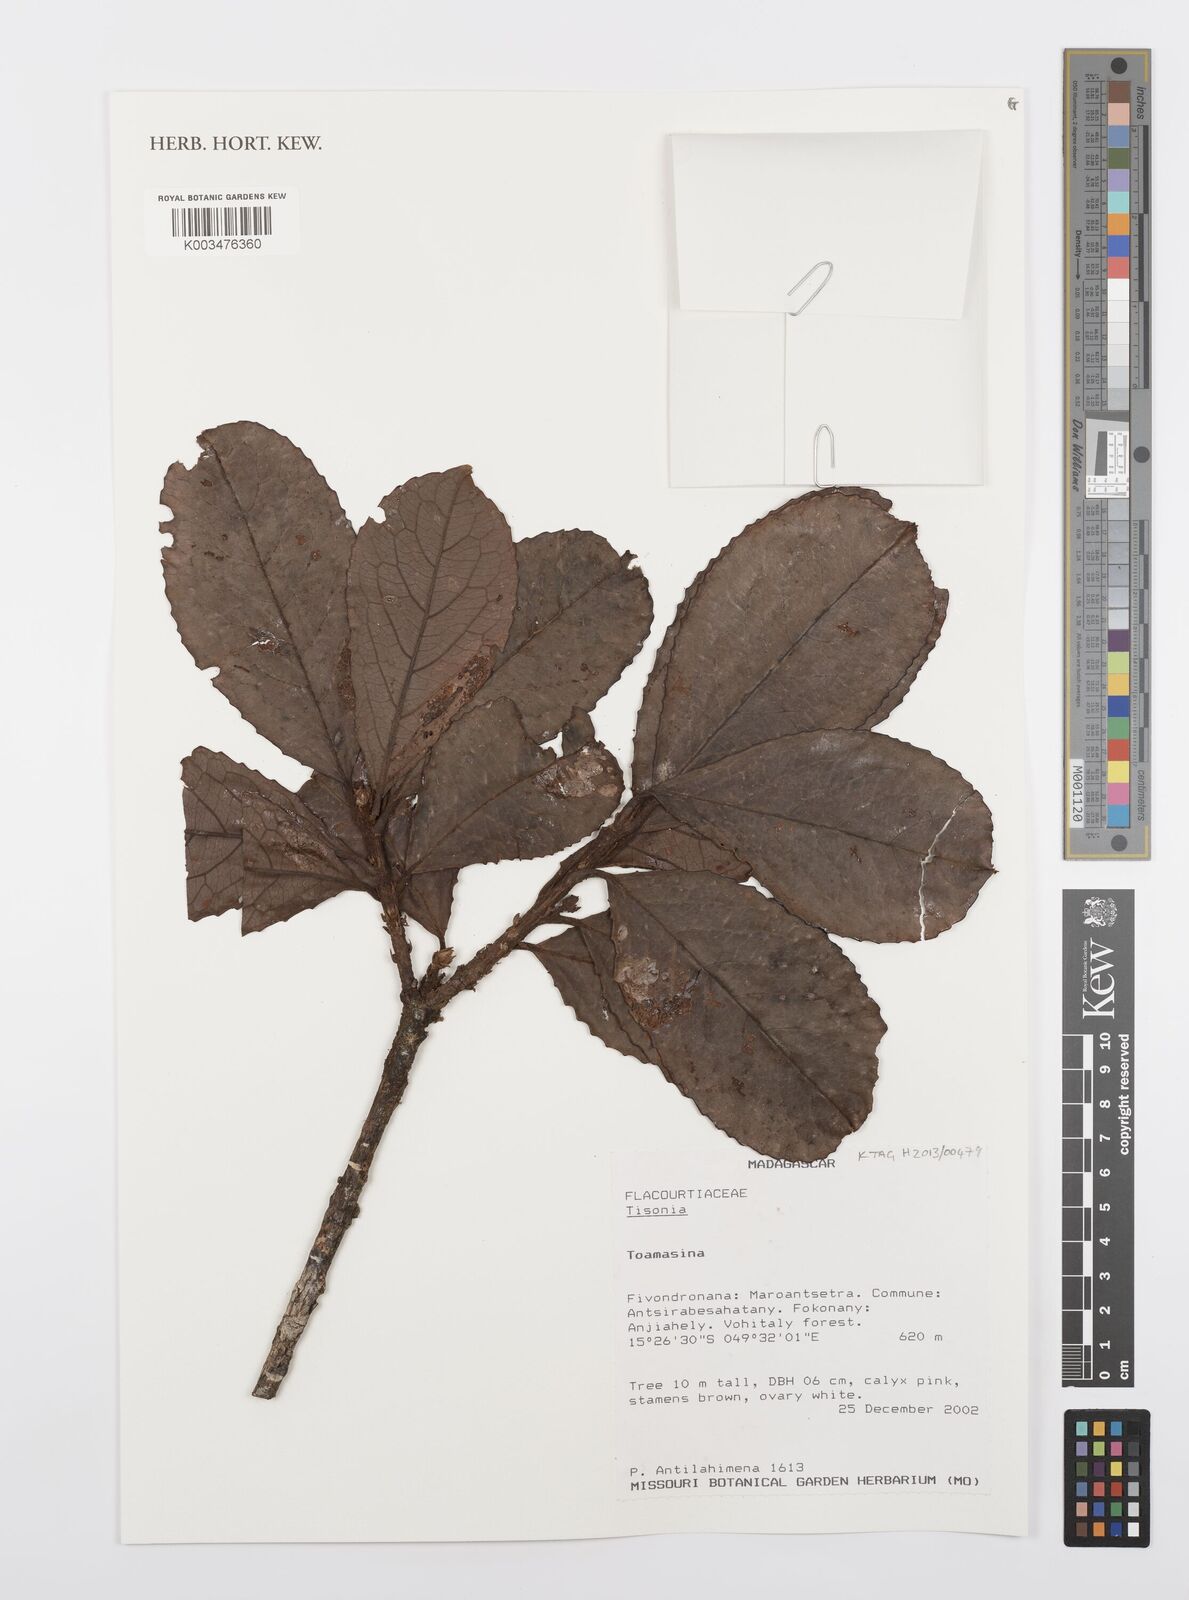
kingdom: Plantae
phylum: Tracheophyta
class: Magnoliopsida
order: Malpighiales
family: Salicaceae
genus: Tisonia
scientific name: Tisonia
